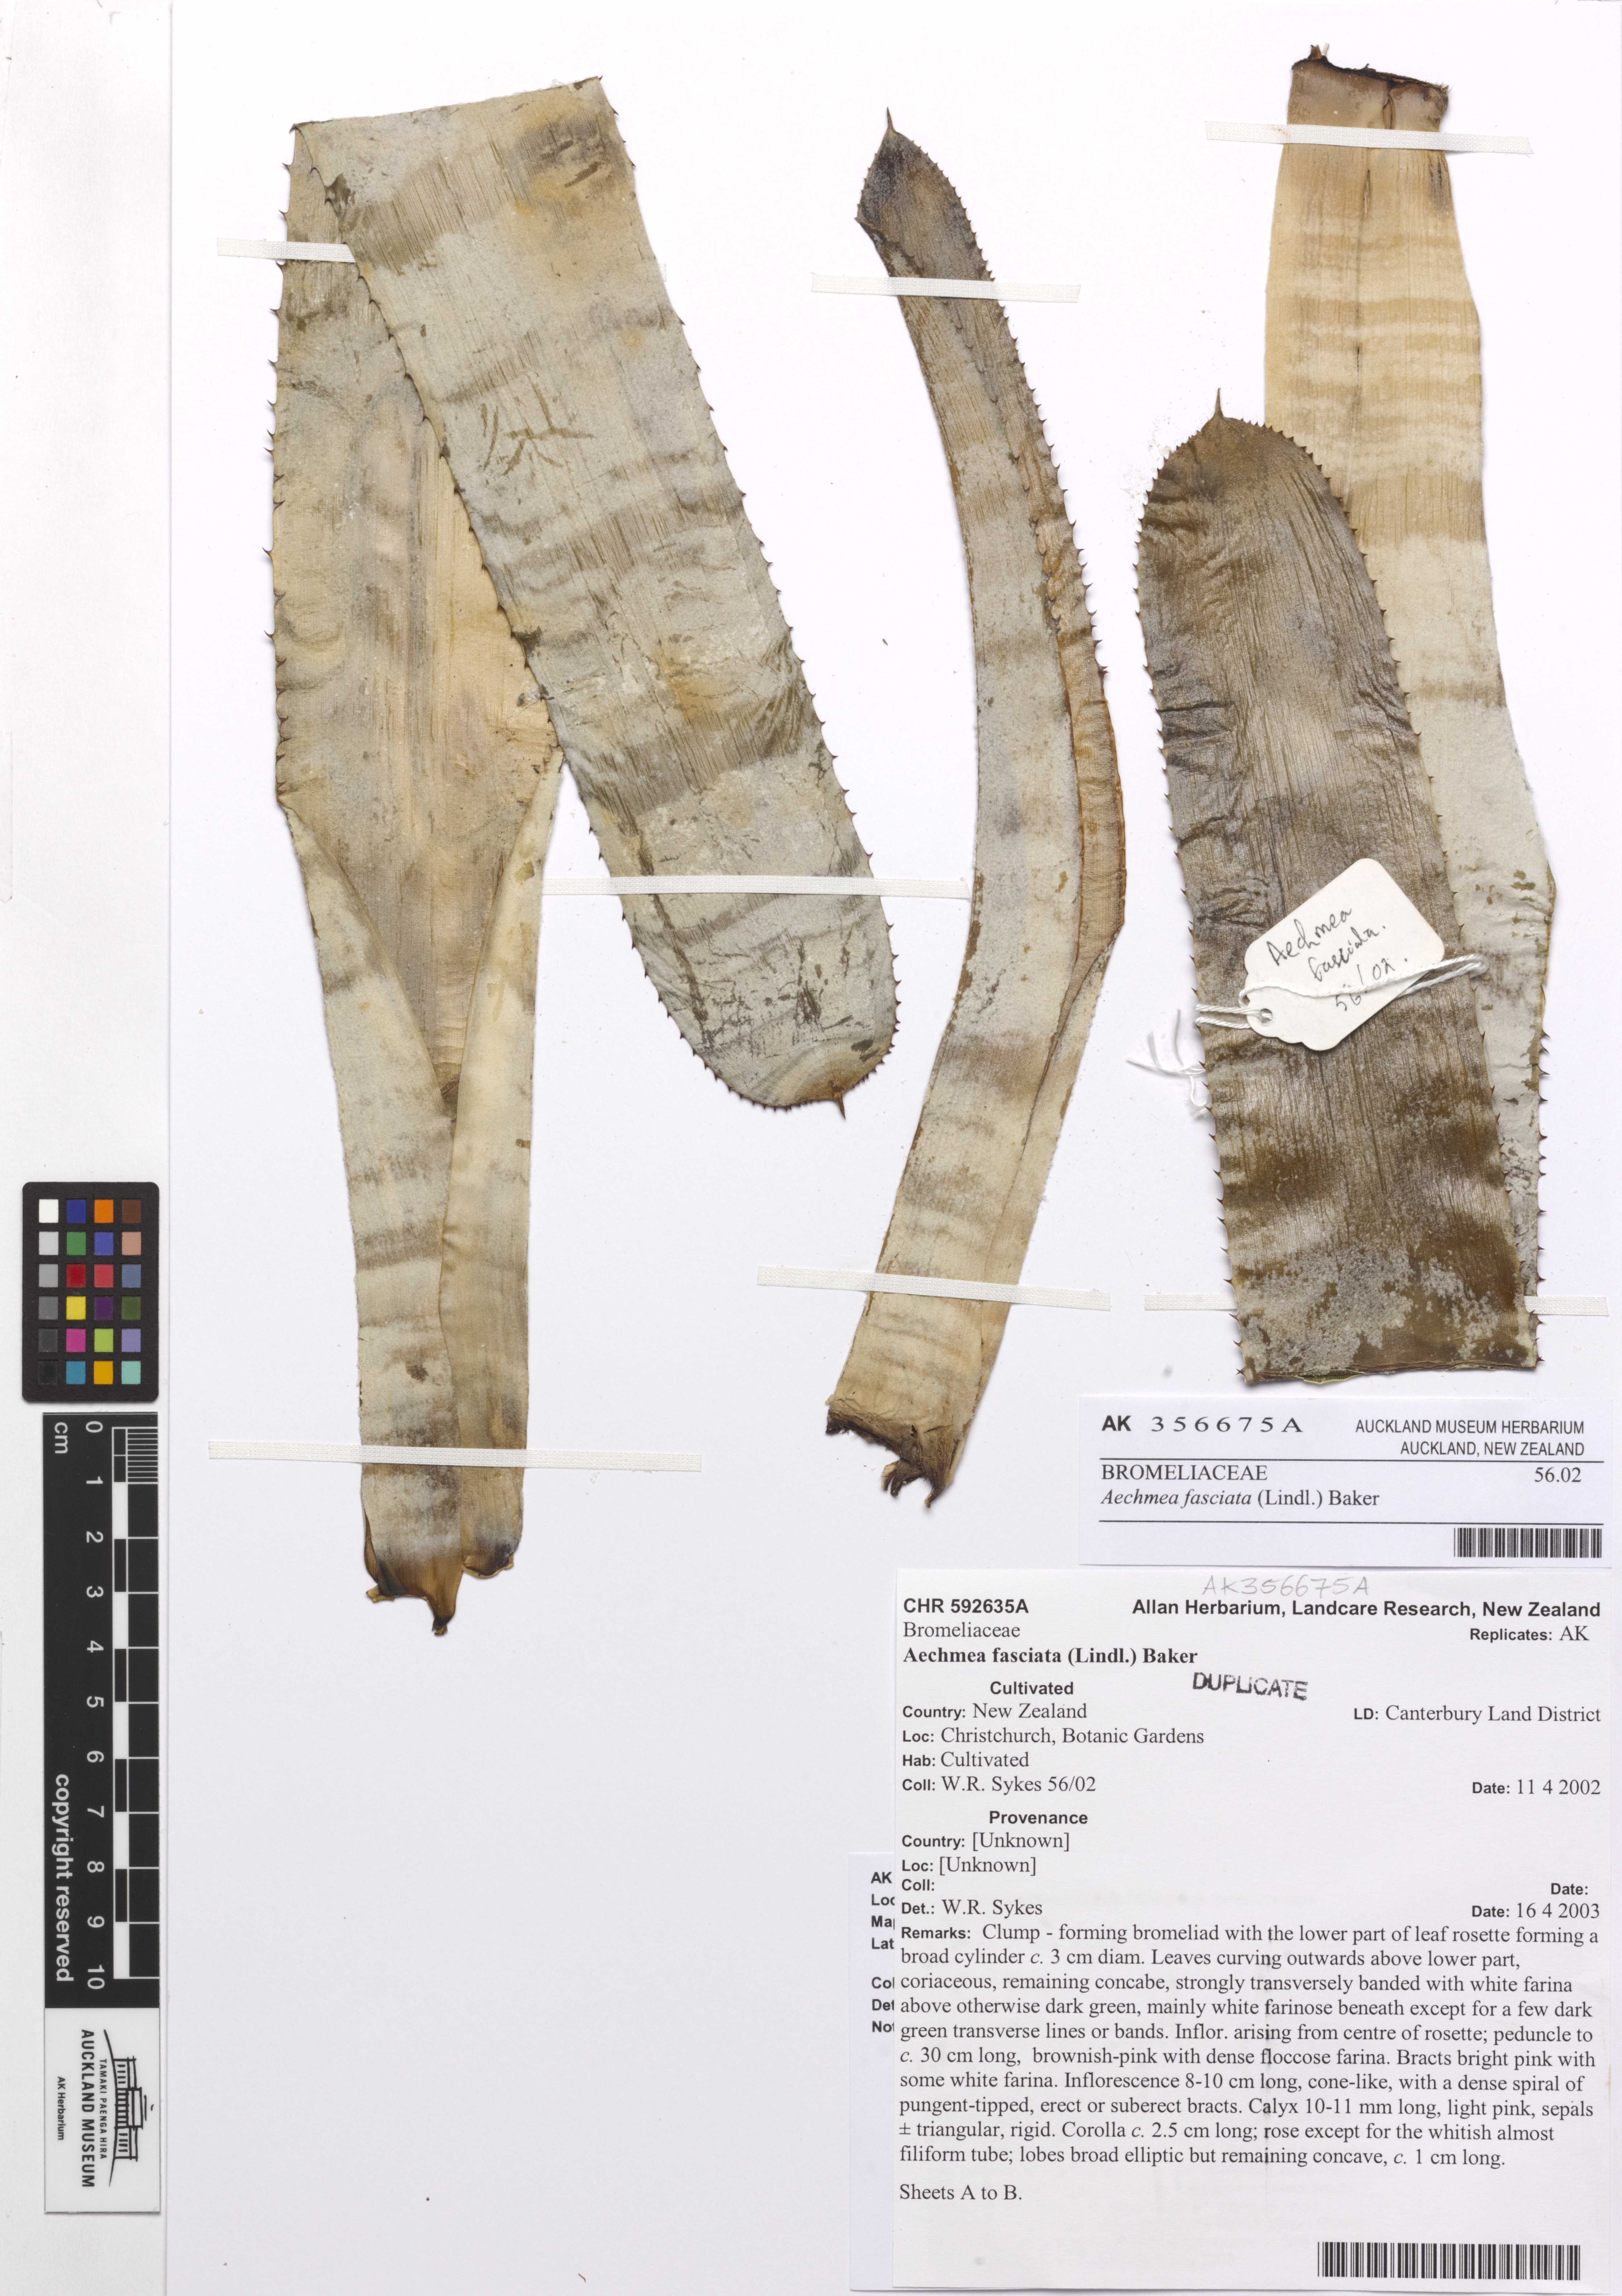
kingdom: Plantae
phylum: Tracheophyta
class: Liliopsida
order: Poales
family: Bromeliaceae
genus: Aechmea
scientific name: Aechmea fasciata
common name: Urnplant
